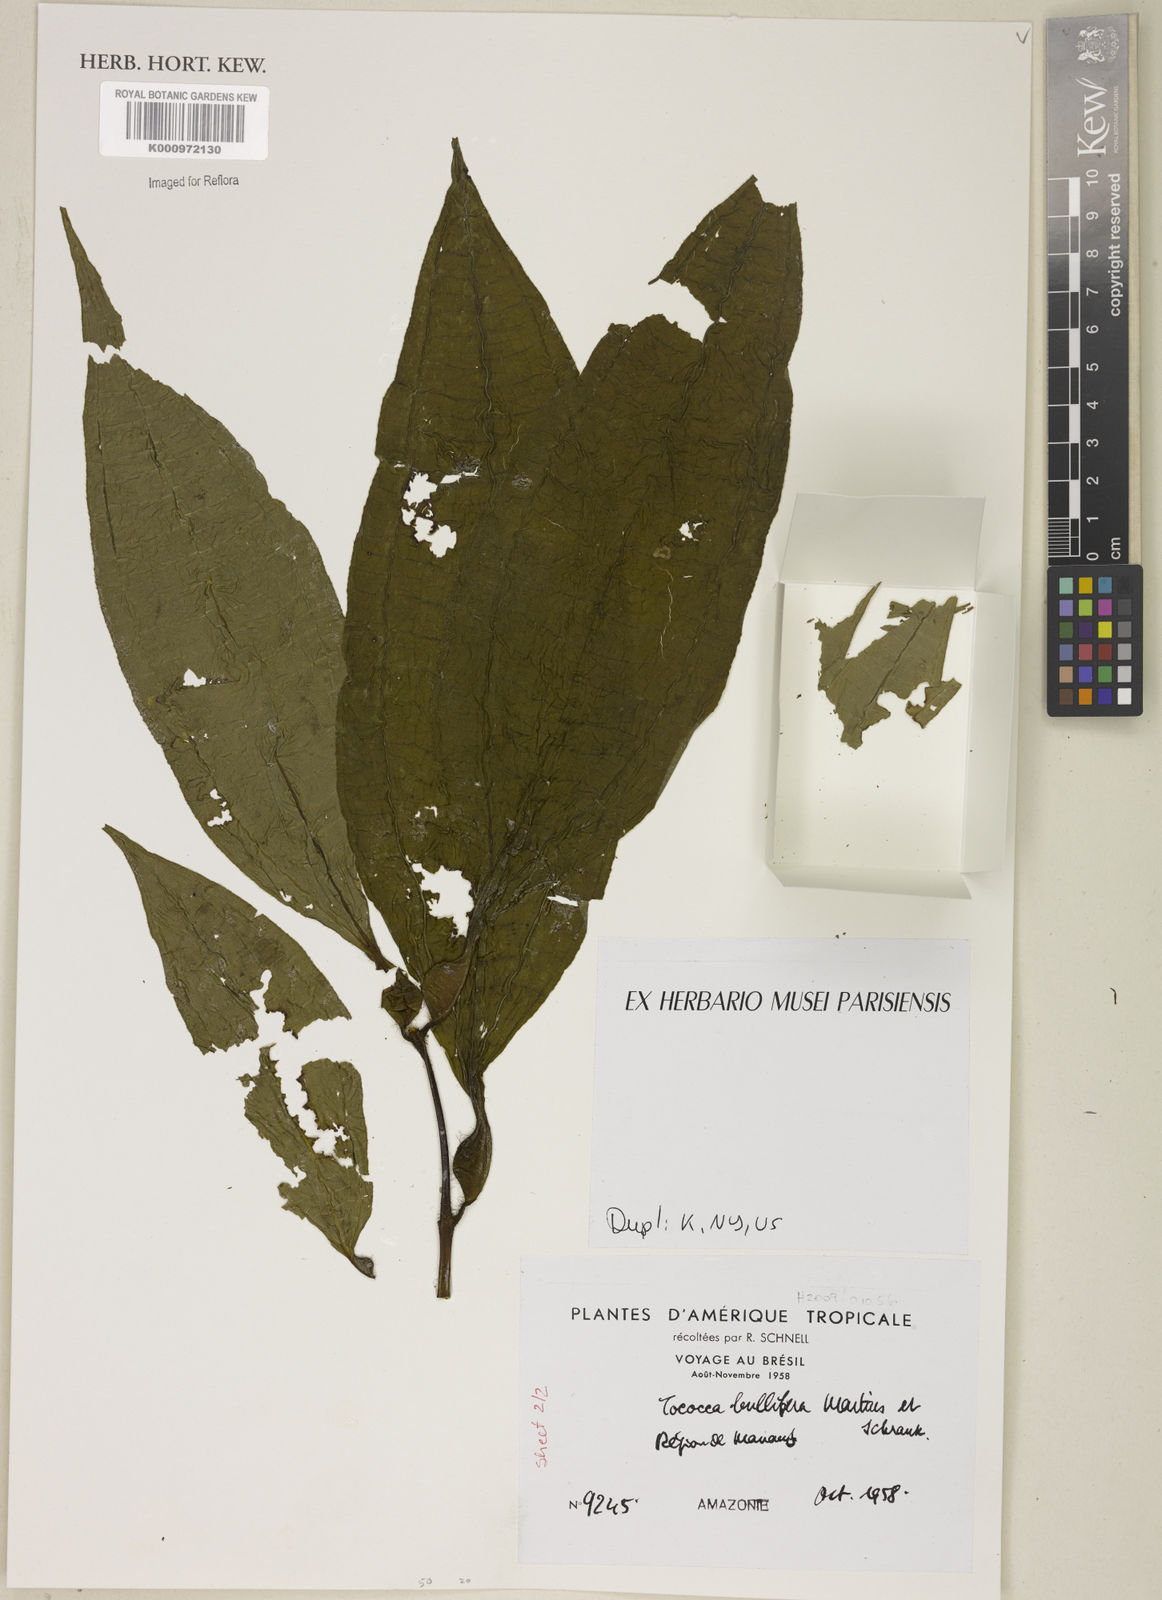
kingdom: Plantae
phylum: Tracheophyta
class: Magnoliopsida
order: Myrtales
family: Melastomataceae
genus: Miconia
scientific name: Miconia bullifera
